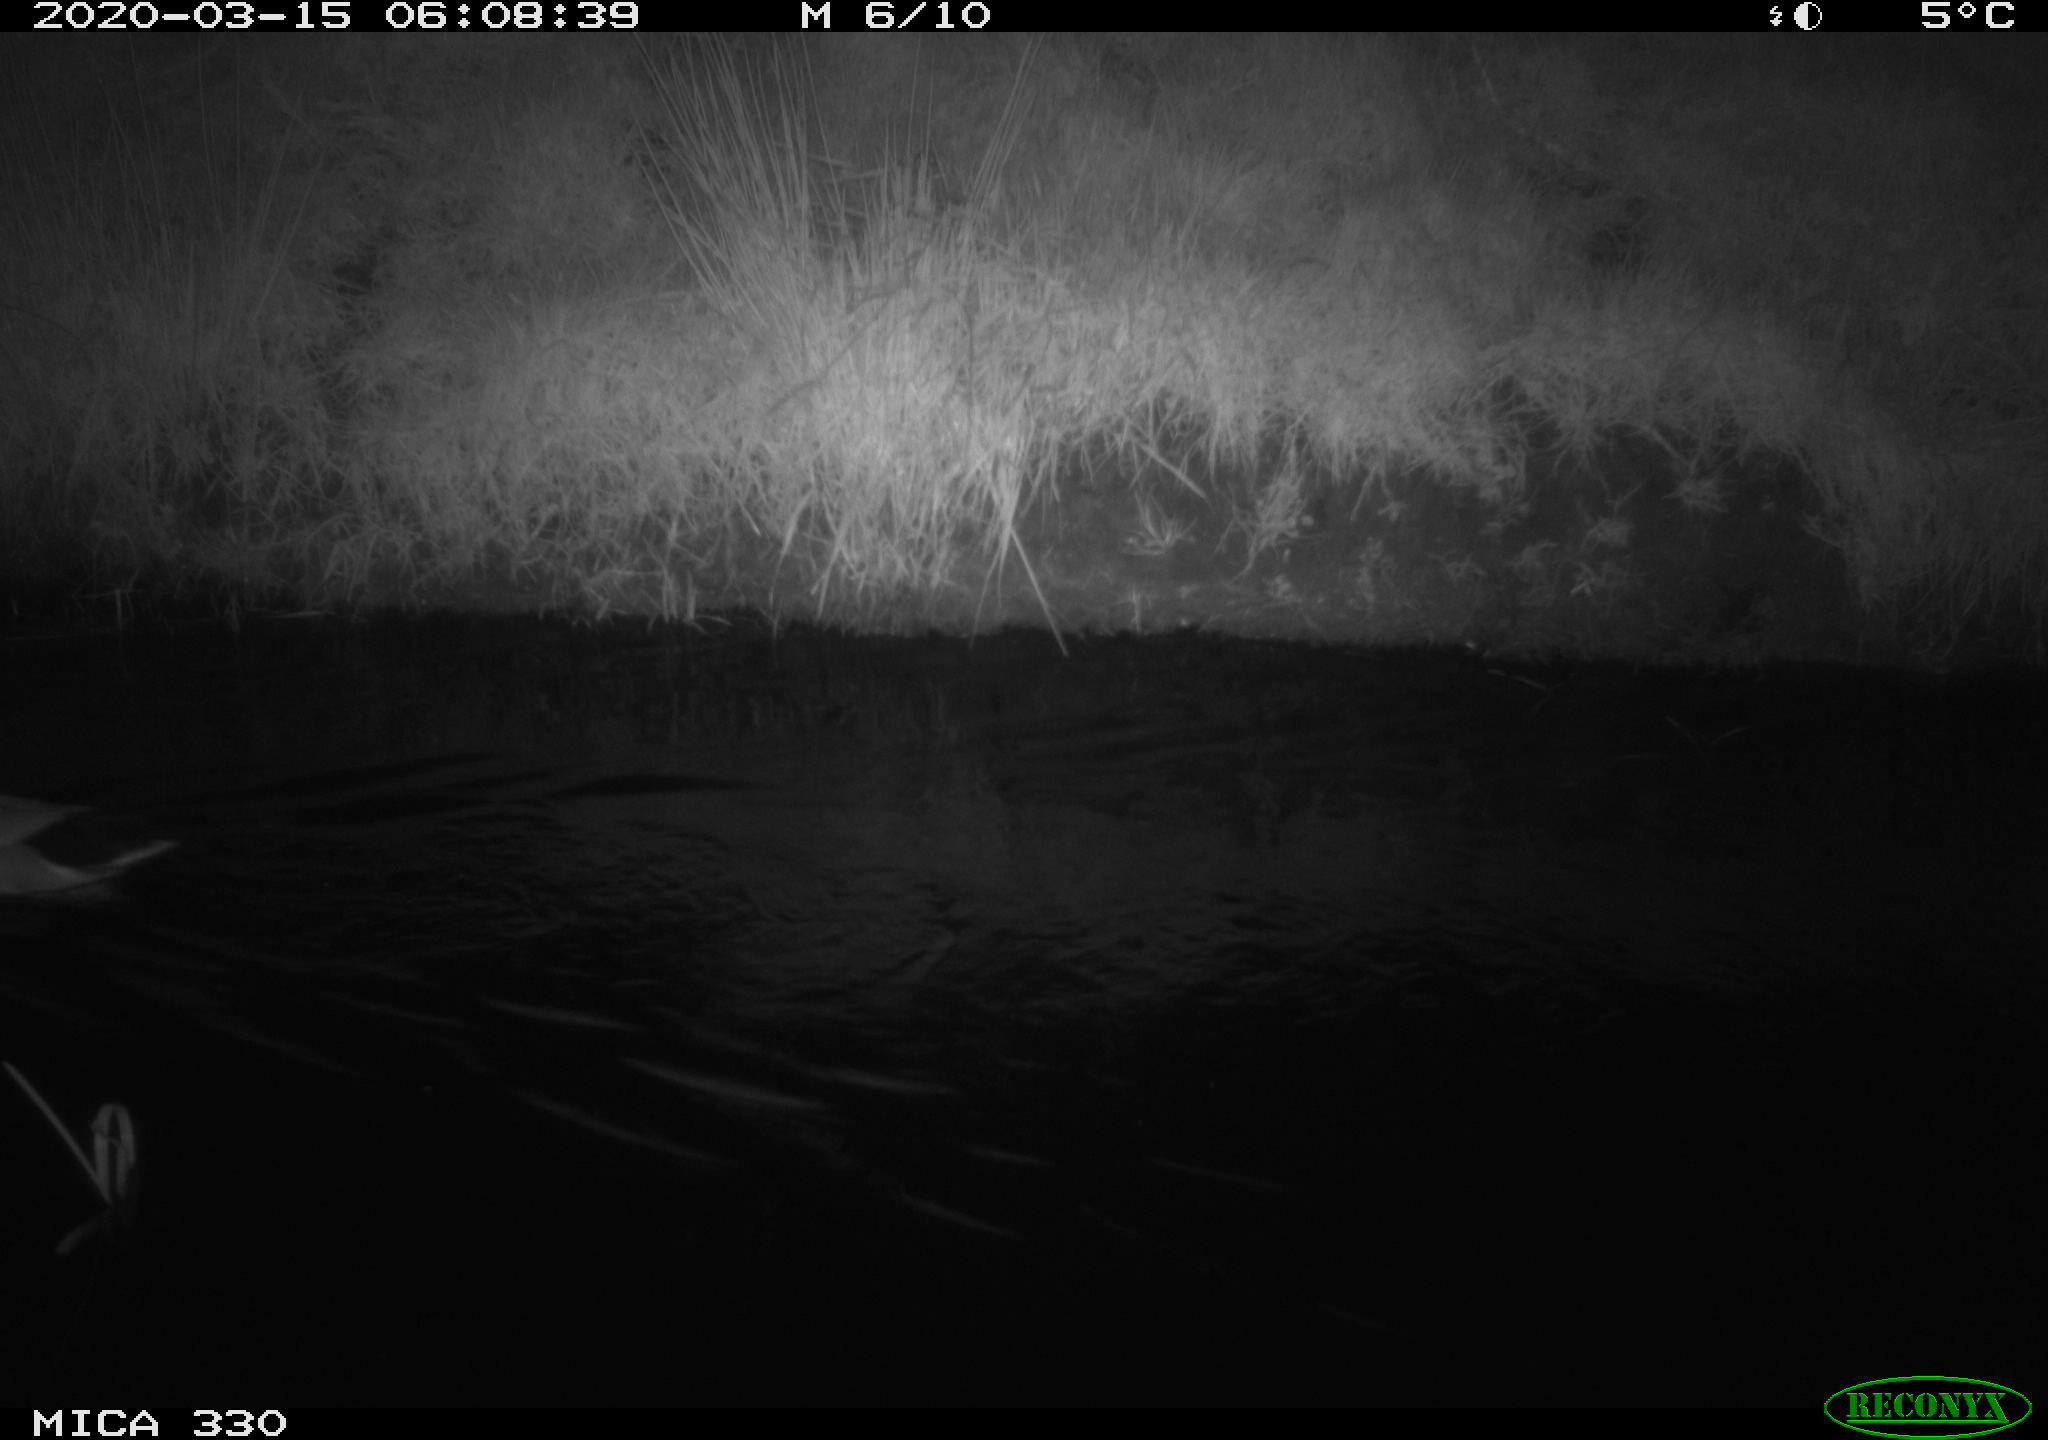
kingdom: Animalia
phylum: Chordata
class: Aves
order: Anseriformes
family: Anatidae
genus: Anas
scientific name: Anas platyrhynchos
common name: Mallard
